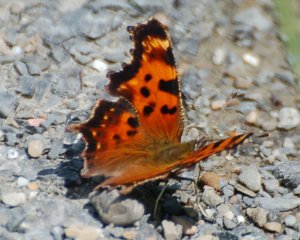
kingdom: Animalia
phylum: Arthropoda
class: Insecta
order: Lepidoptera
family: Nymphalidae
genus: Polygonia
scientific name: Polygonia faunus
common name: Green Comma
